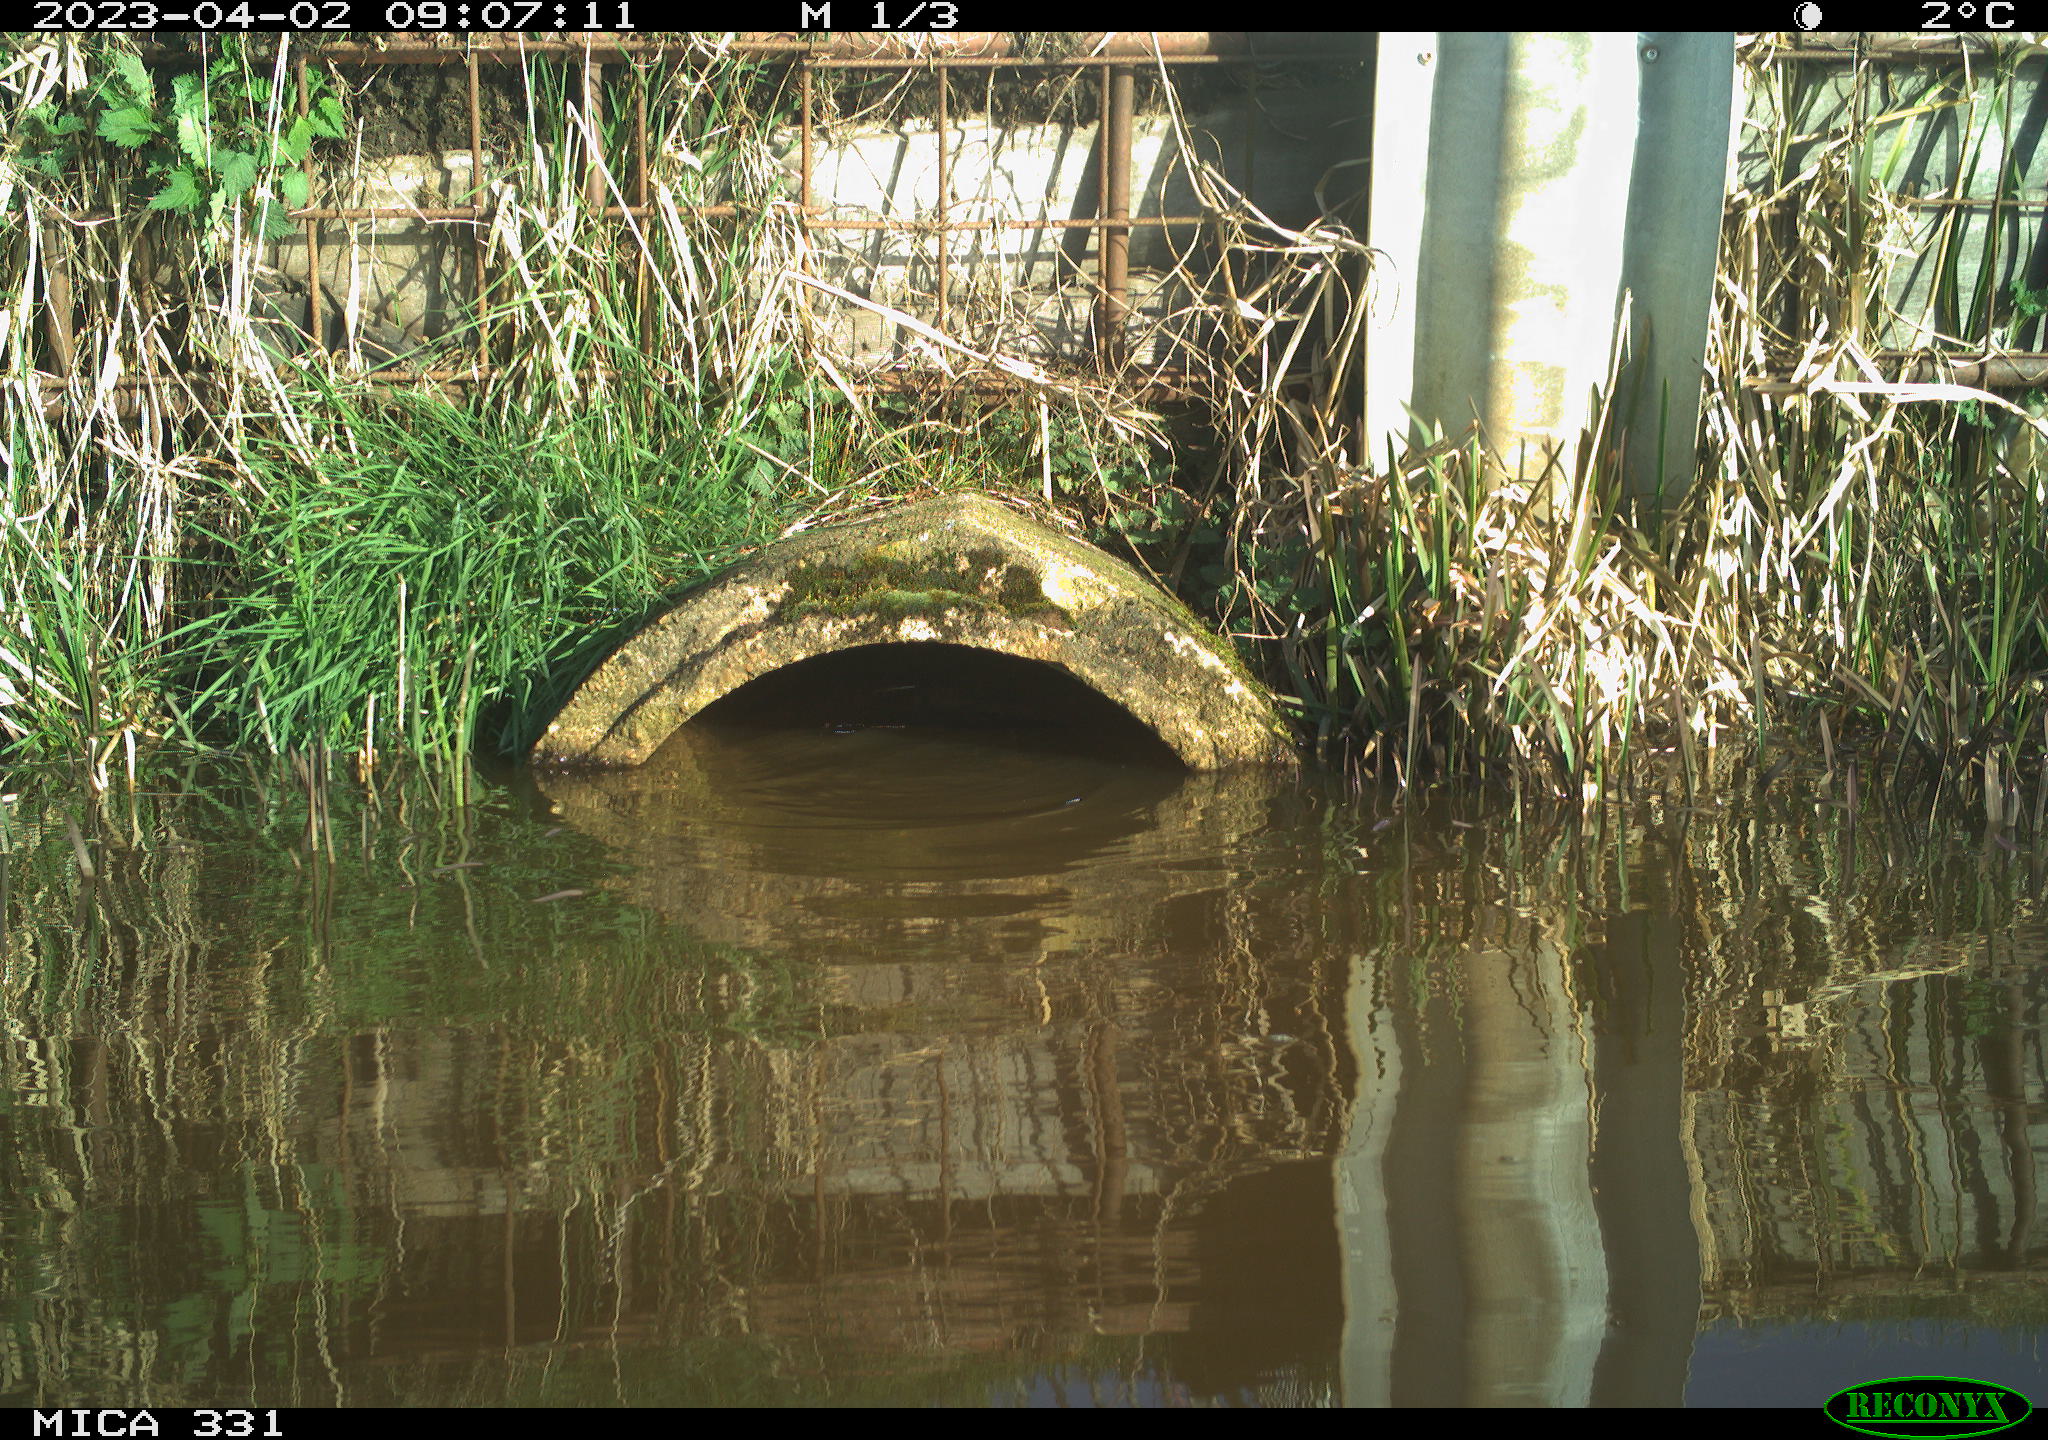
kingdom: Animalia
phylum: Chordata
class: Aves
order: Gruiformes
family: Rallidae
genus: Gallinula
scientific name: Gallinula chloropus
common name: Common moorhen
